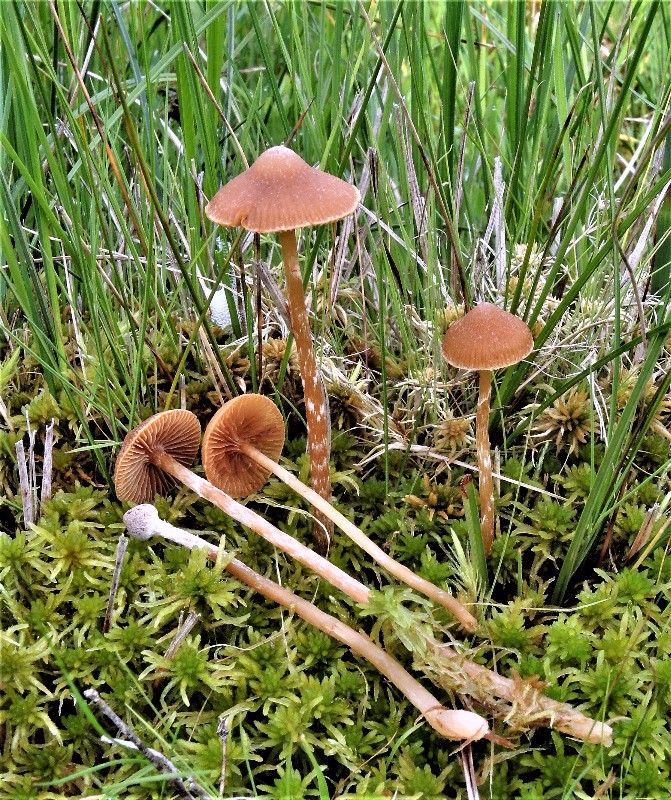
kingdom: Fungi
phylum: Basidiomycota
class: Agaricomycetes
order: Agaricales
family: Hymenogastraceae
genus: Galerina
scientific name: Galerina paludosa
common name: mose-hjelmhat
